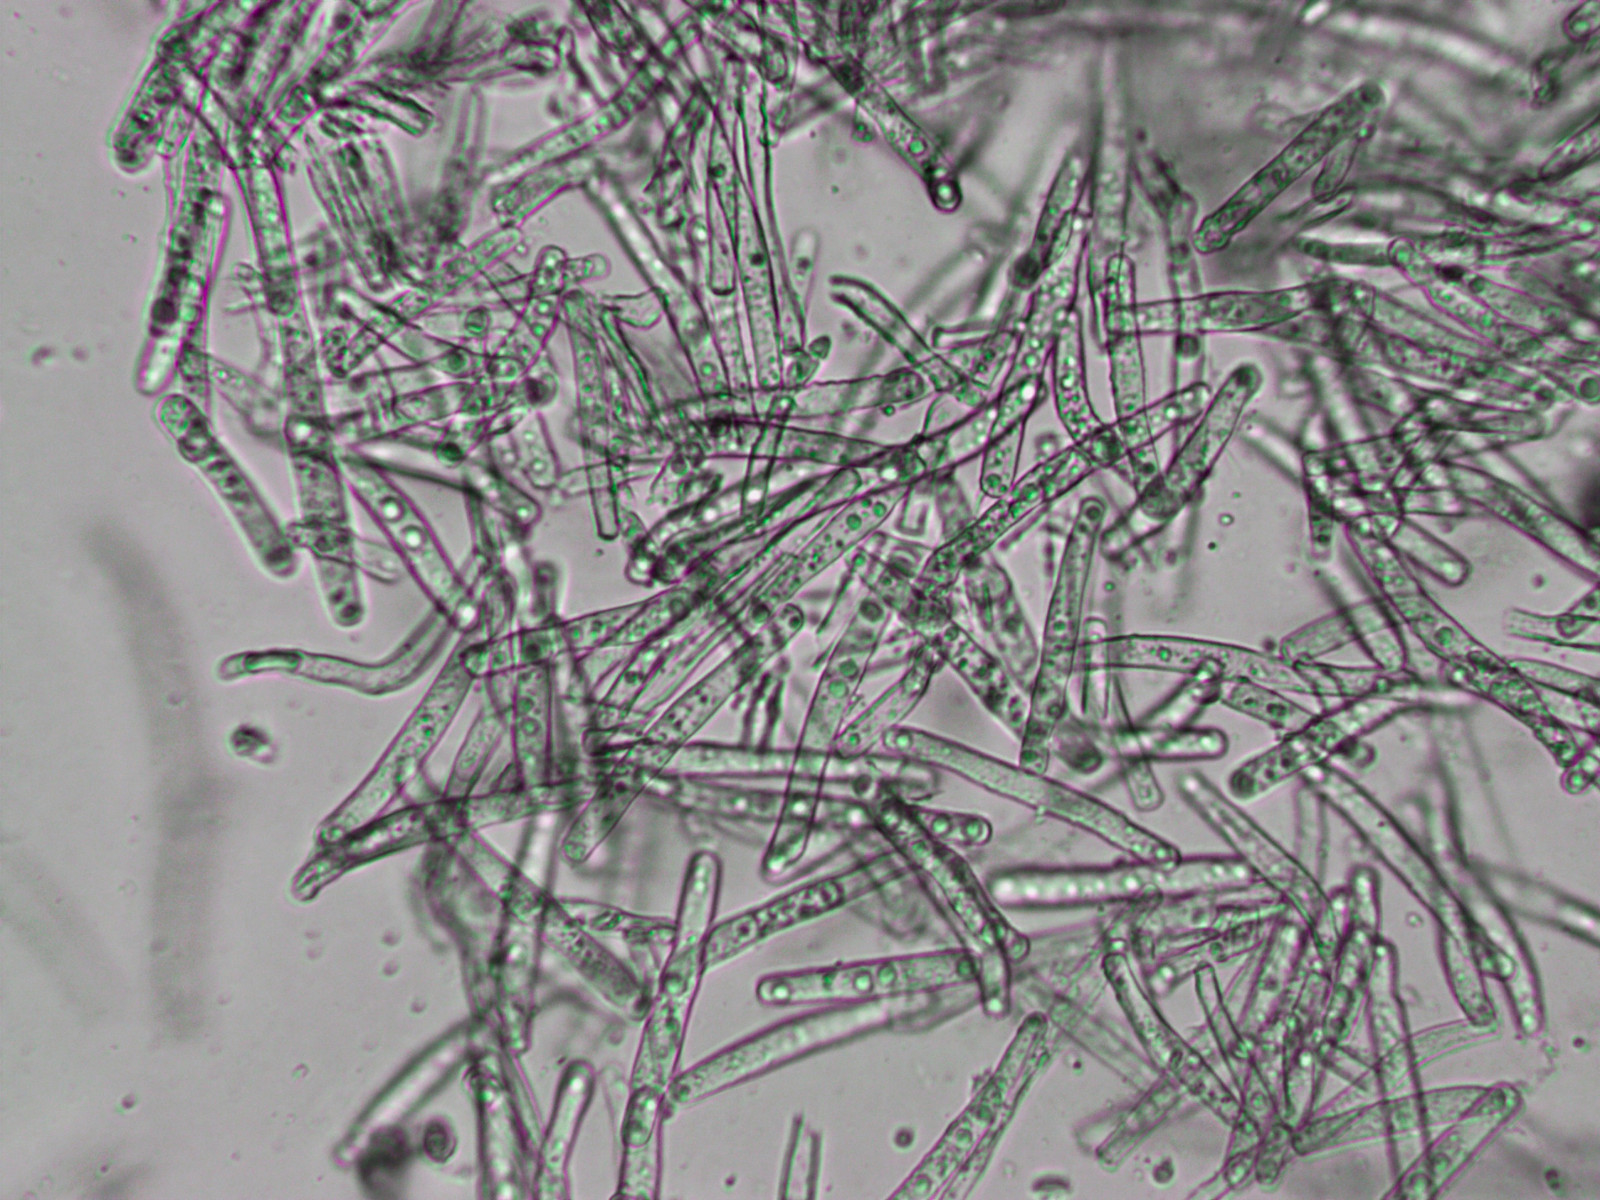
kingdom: Fungi
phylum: Ascomycota
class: Leotiomycetes
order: Helotiales
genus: Thedgonia
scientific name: Thedgonia ligustrina
